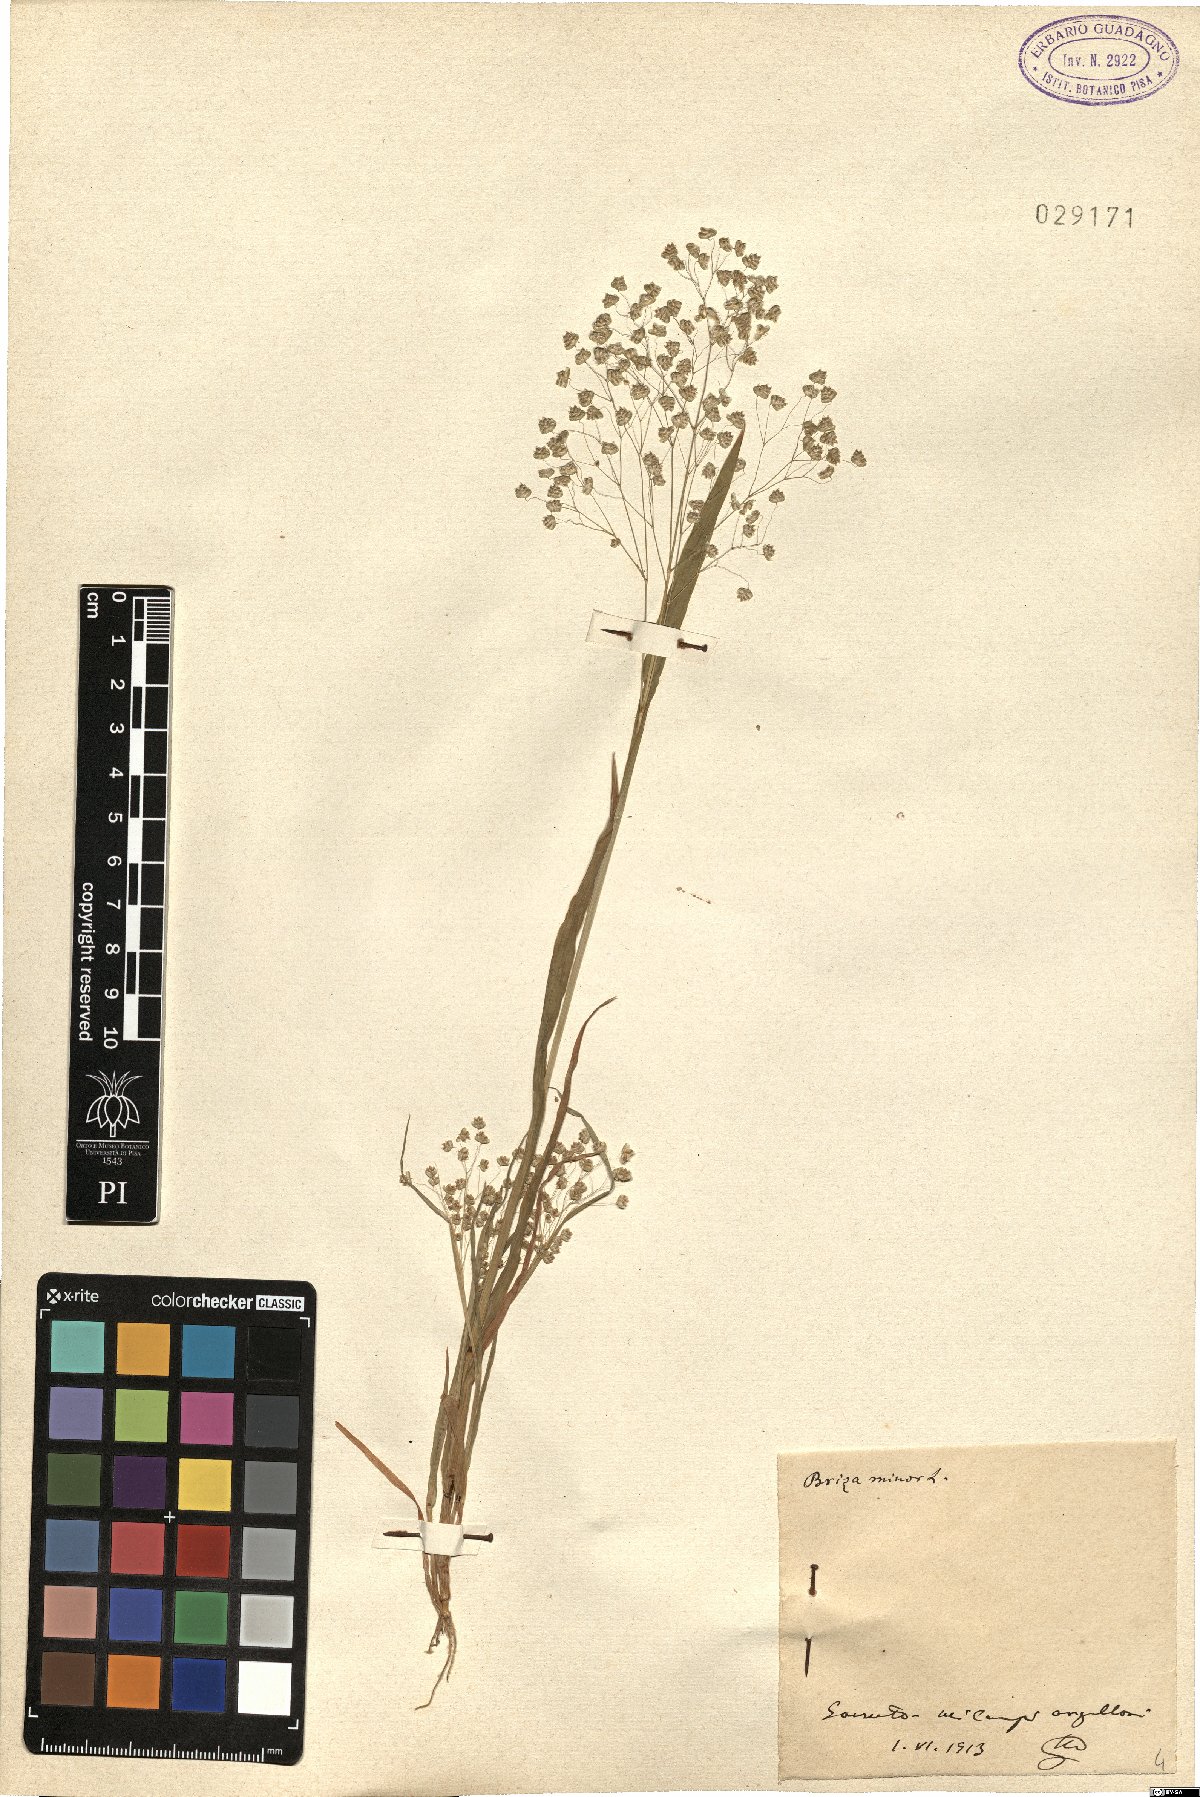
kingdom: Plantae
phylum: Tracheophyta
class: Liliopsida
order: Poales
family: Poaceae
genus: Briza
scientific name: Briza minor
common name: Lesser quaking-grass
